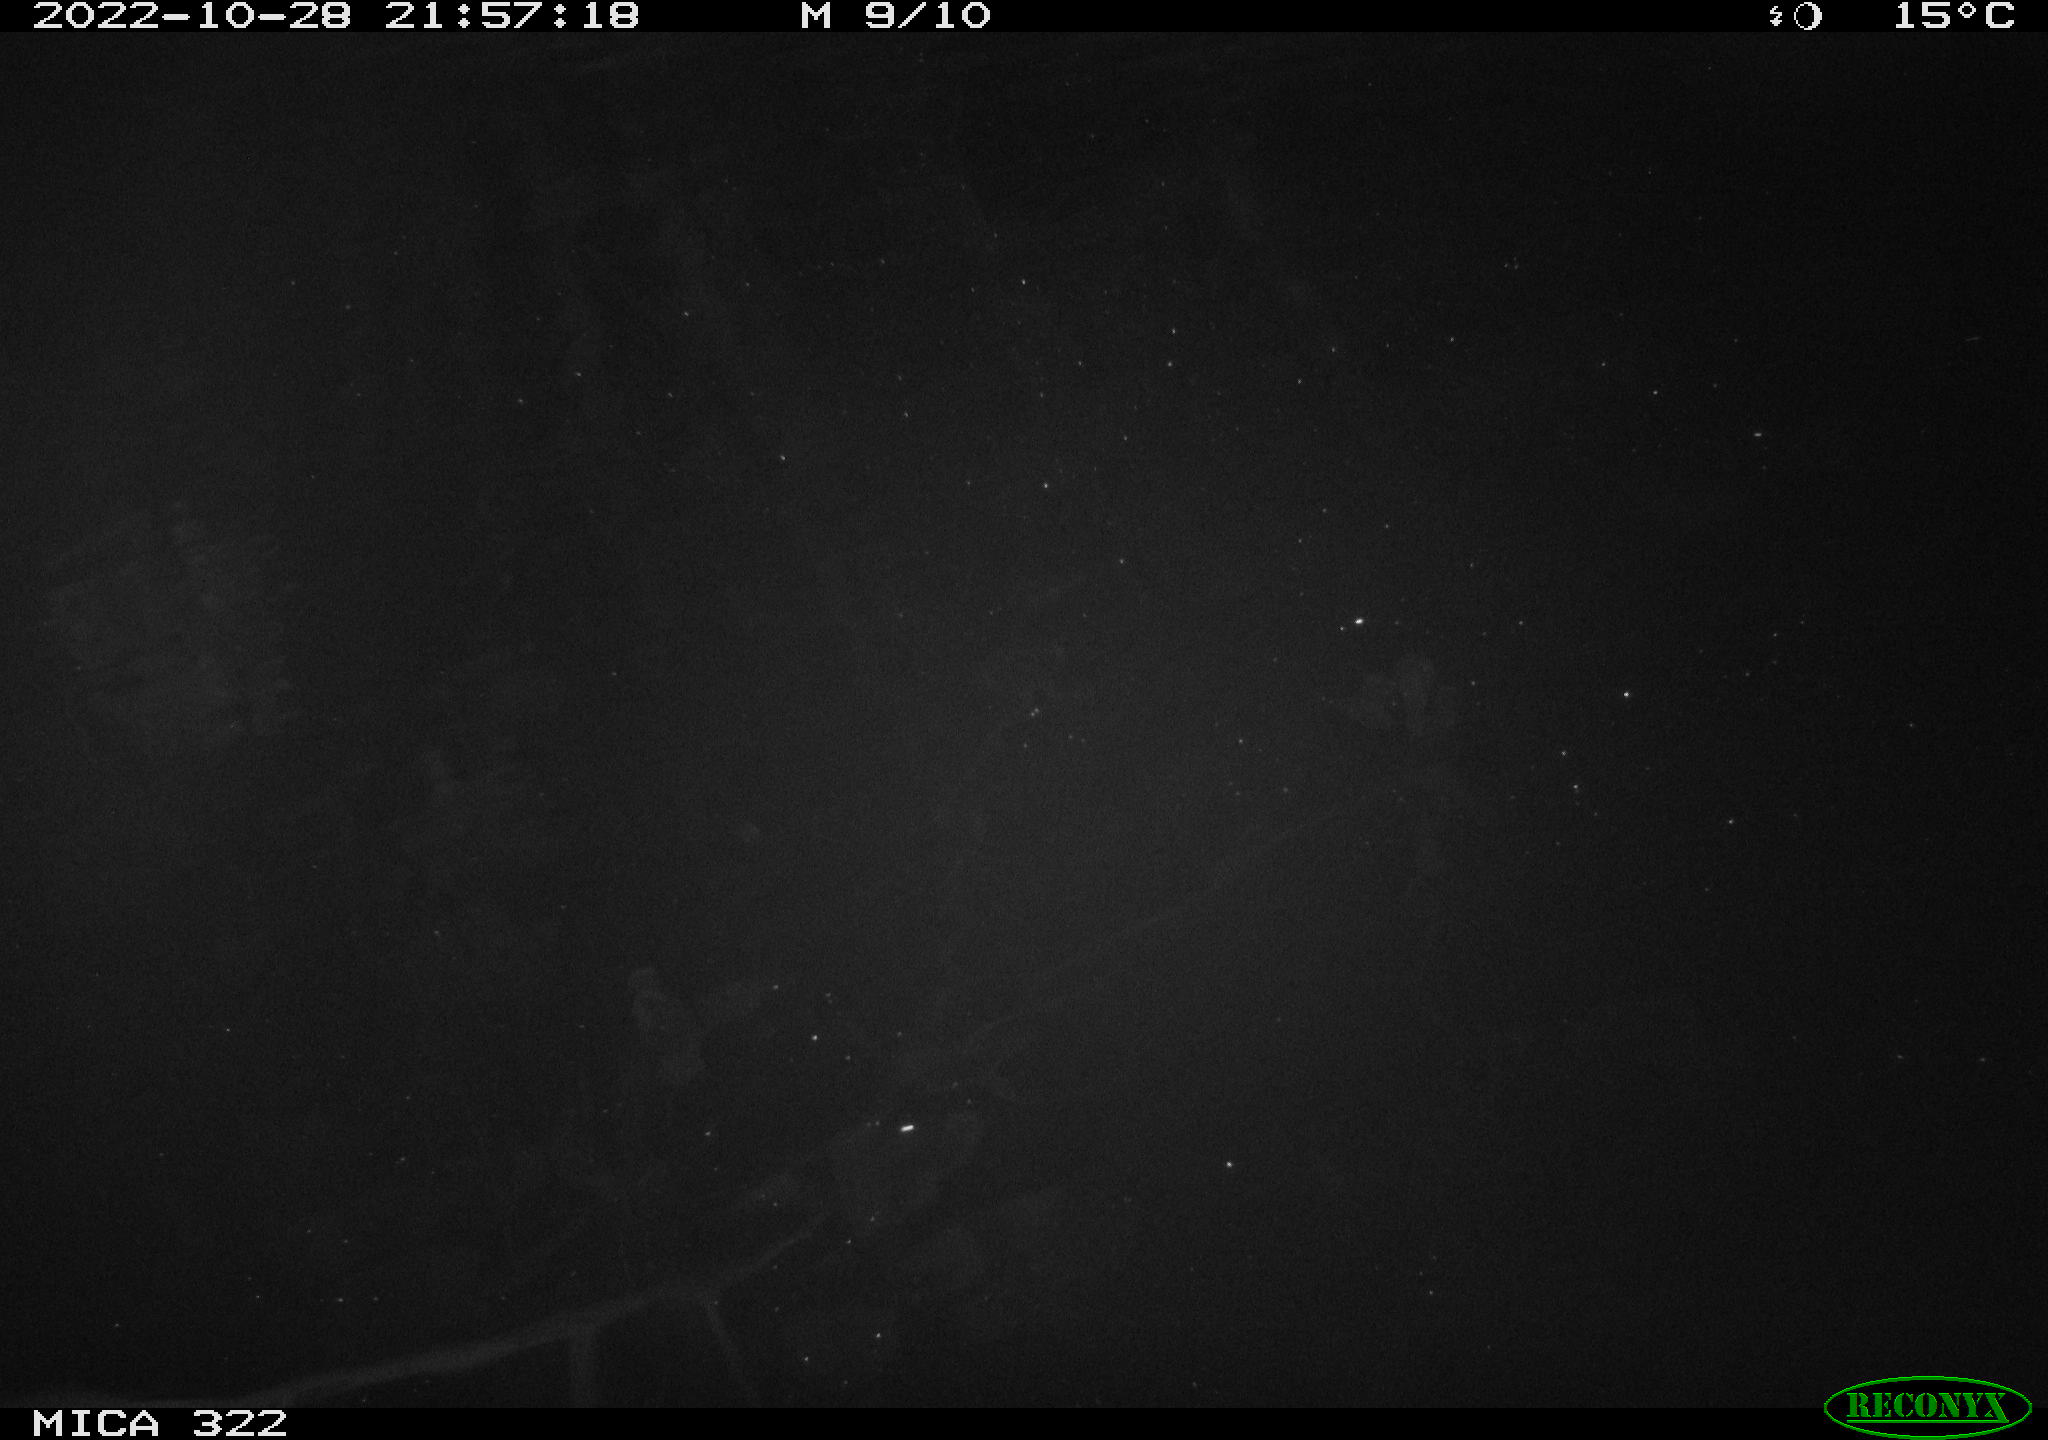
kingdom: Animalia
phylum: Chordata
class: Mammalia
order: Rodentia
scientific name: Rodentia
